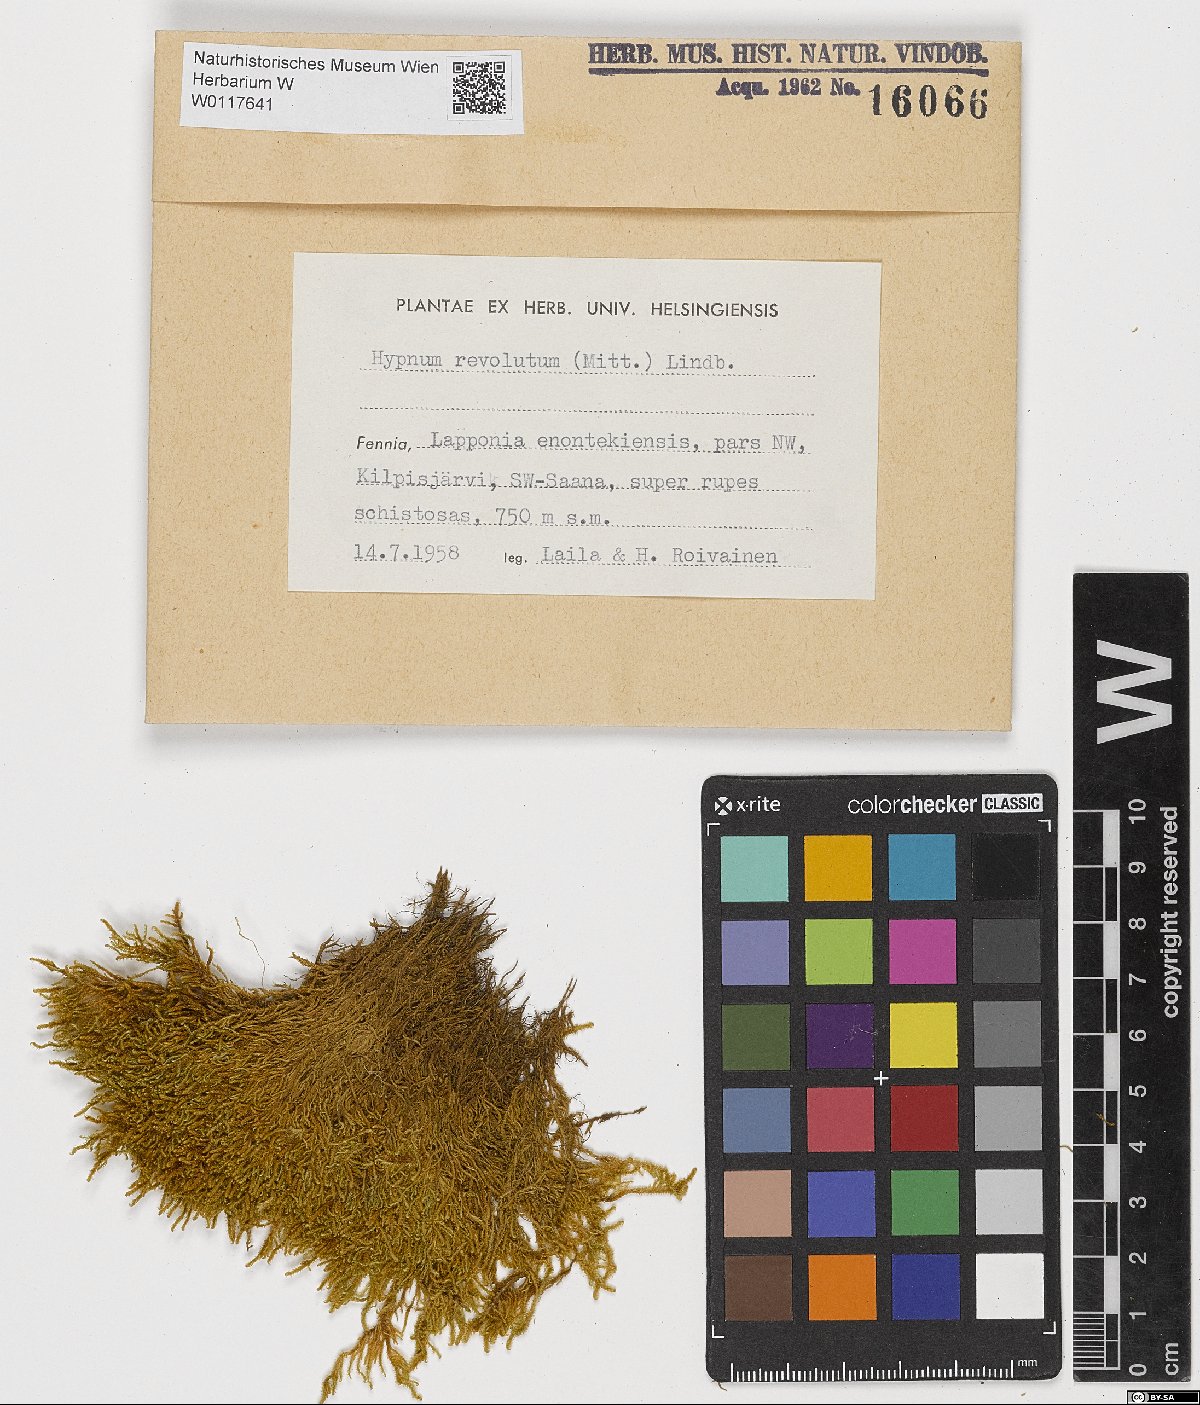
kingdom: Plantae
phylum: Bryophyta
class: Bryopsida
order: Hypnales
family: Pylaisiaceae
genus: Roaldia
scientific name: Roaldia revoluta
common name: Revolute plait-moss
